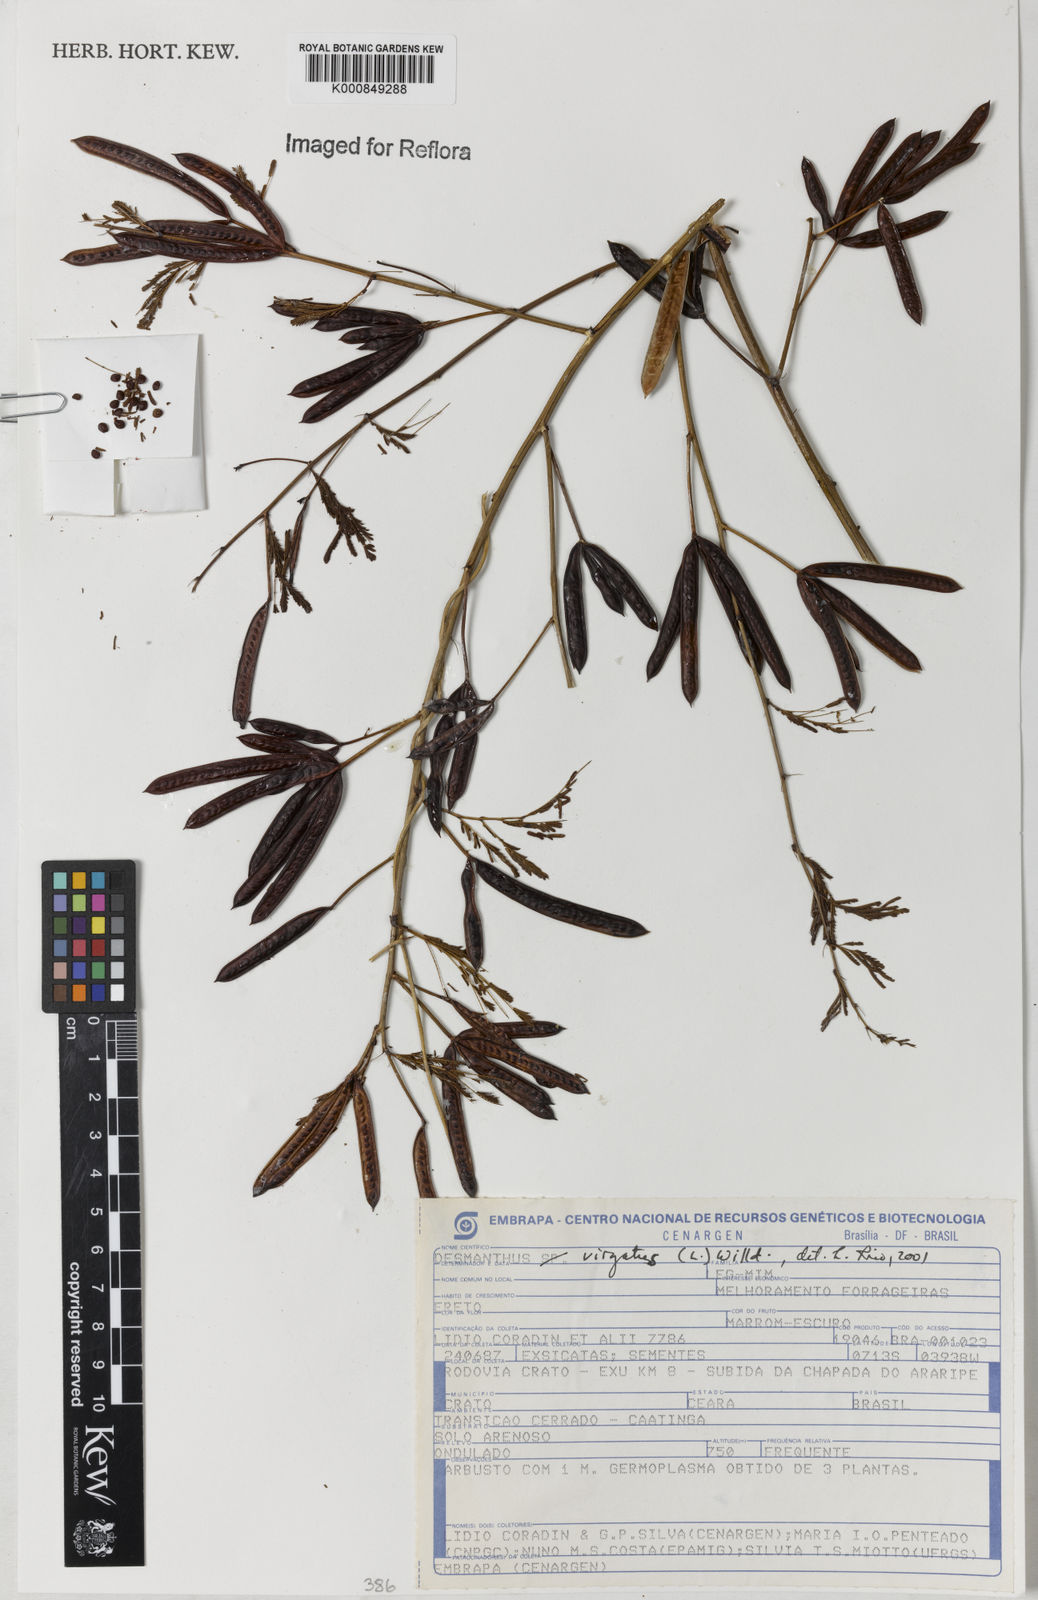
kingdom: Plantae
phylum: Tracheophyta
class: Magnoliopsida
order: Fabales
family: Fabaceae
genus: Desmanthus
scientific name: Desmanthus virgatus
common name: Wild tantan
